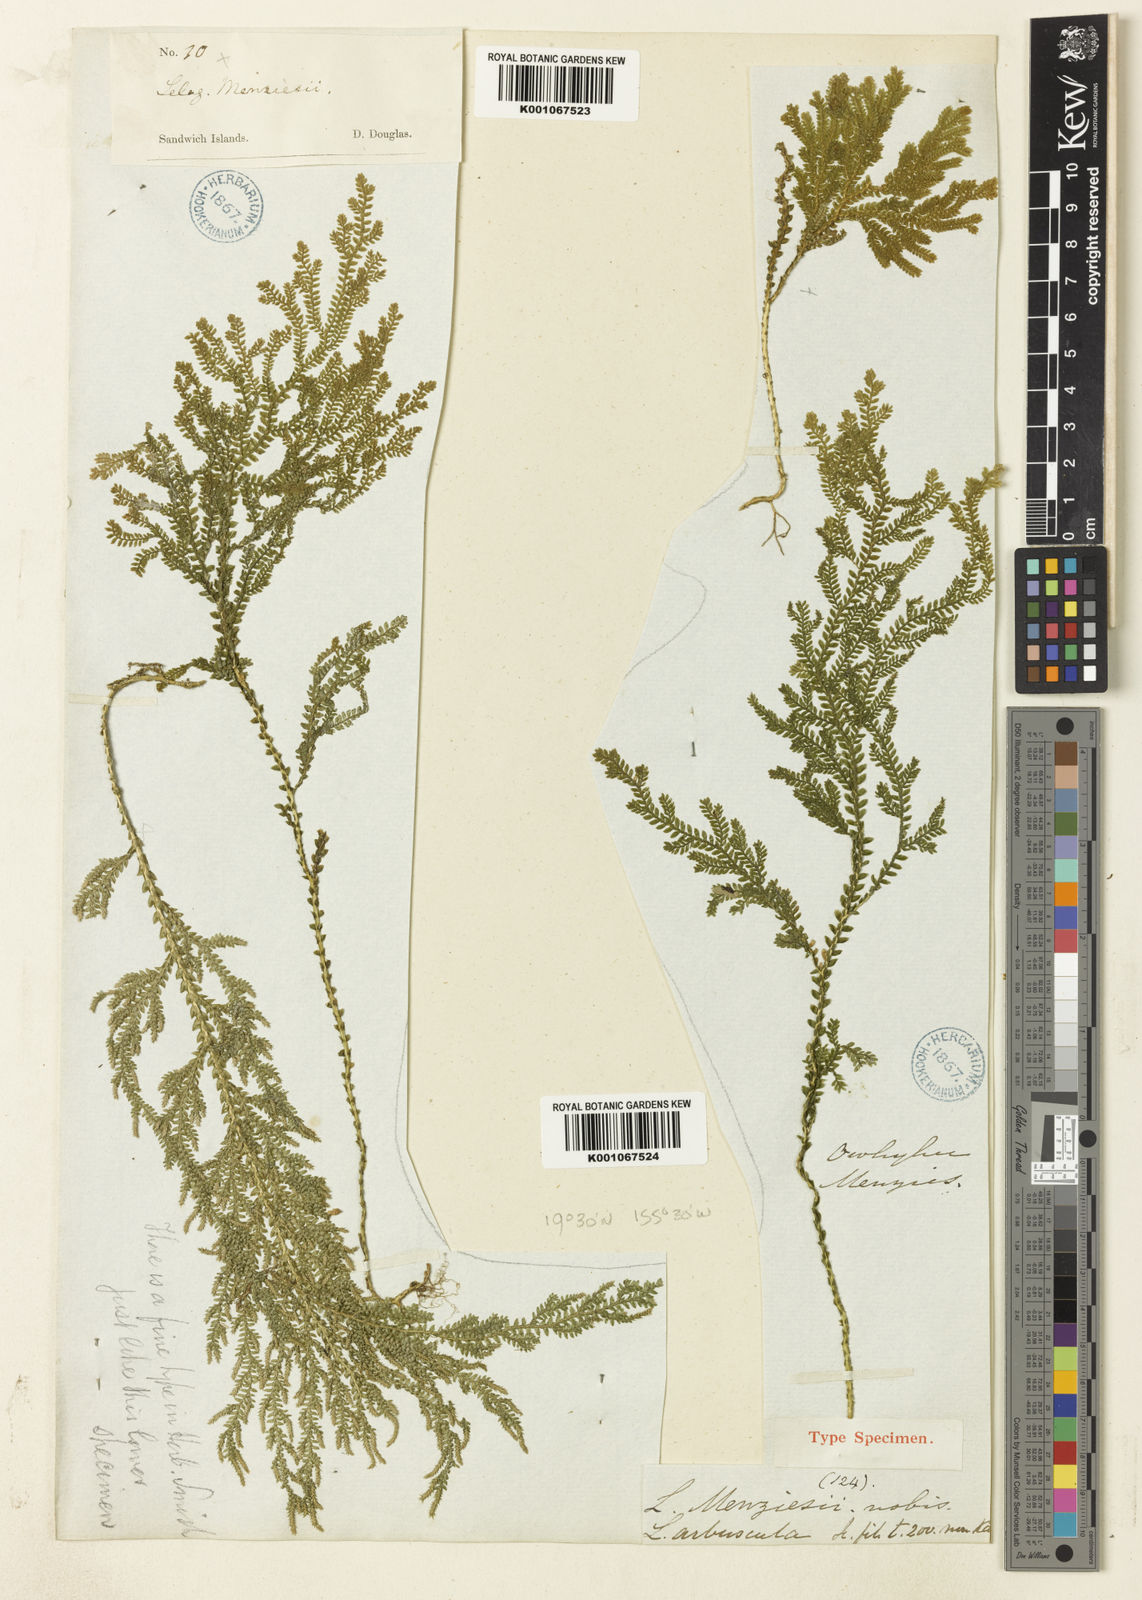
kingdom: Plantae
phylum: Tracheophyta
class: Lycopodiopsida
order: Selaginellales
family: Selaginellaceae
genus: Selaginella
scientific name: Selaginella menziesii
